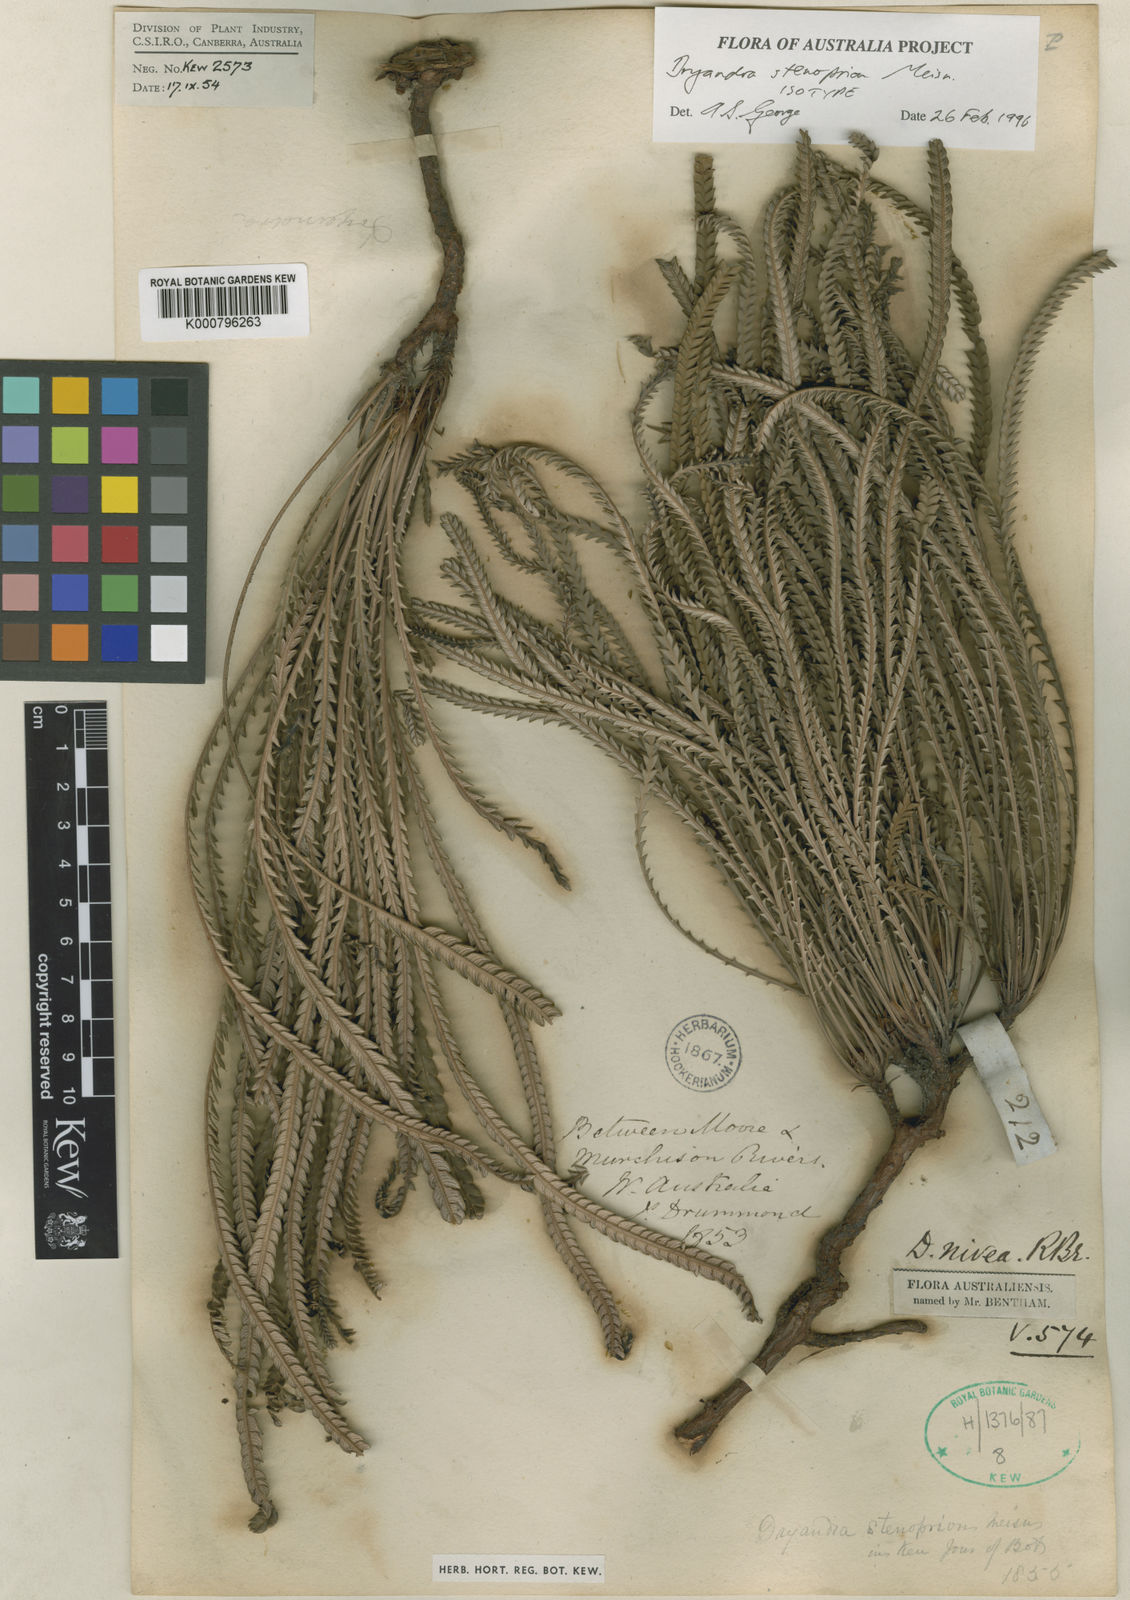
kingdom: Plantae
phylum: Tracheophyta
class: Magnoliopsida
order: Proteales
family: Proteaceae
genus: Banksia
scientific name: Banksia nivea
